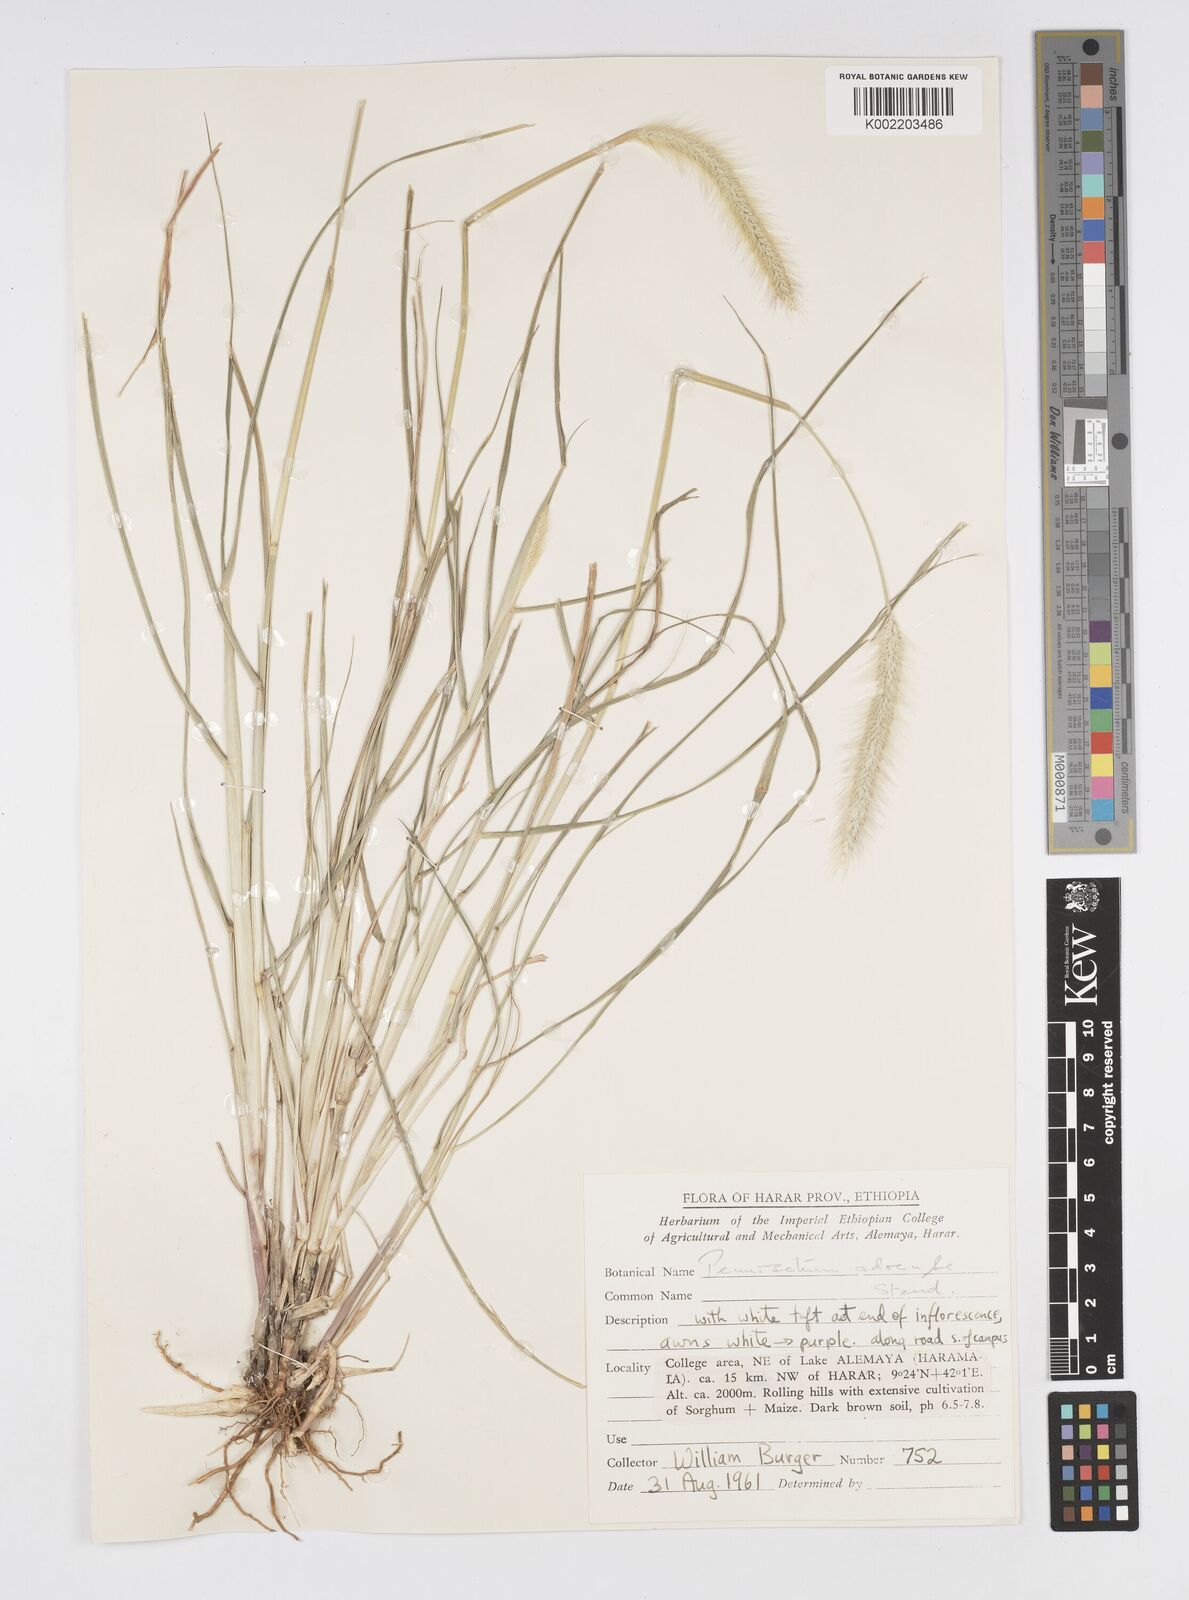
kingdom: Plantae
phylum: Tracheophyta
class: Liliopsida
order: Poales
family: Poaceae
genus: Cenchrus
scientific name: Cenchrus geniculatus
